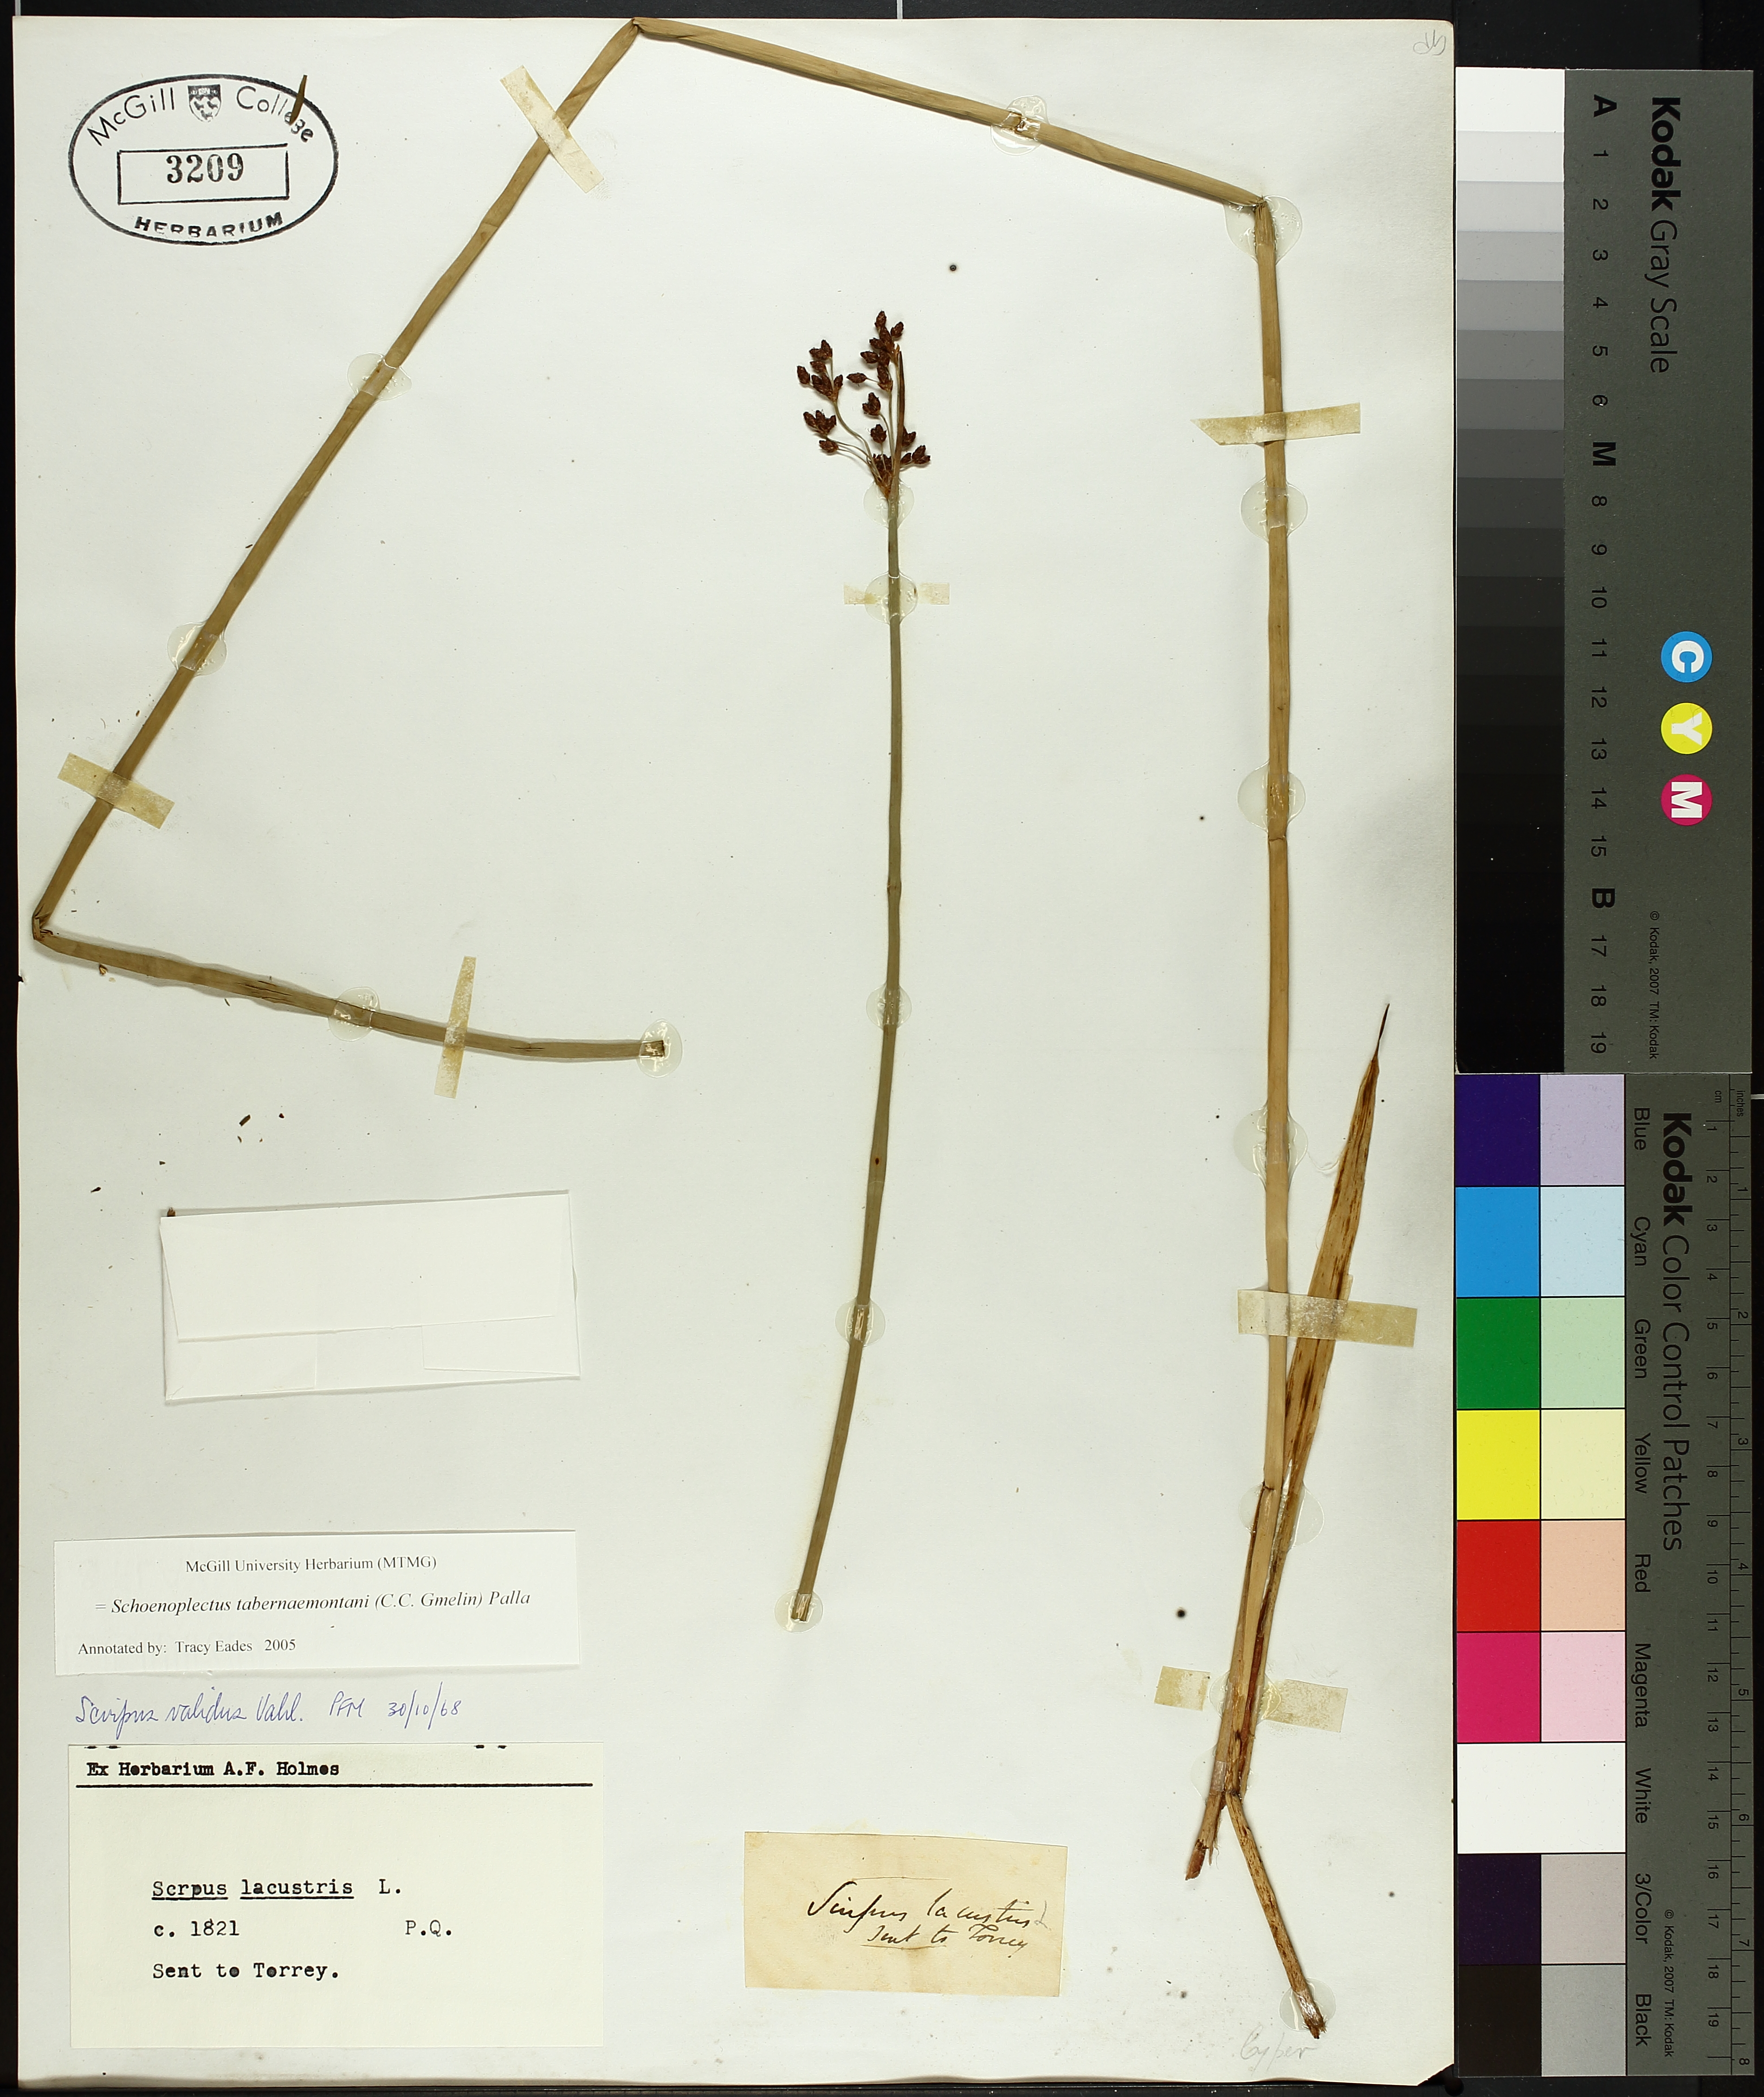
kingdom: Plantae
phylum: Tracheophyta
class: Liliopsida
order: Poales
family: Cyperaceae
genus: Schoenoplectus
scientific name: Schoenoplectus tabernaemontani
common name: Grey club-rush
